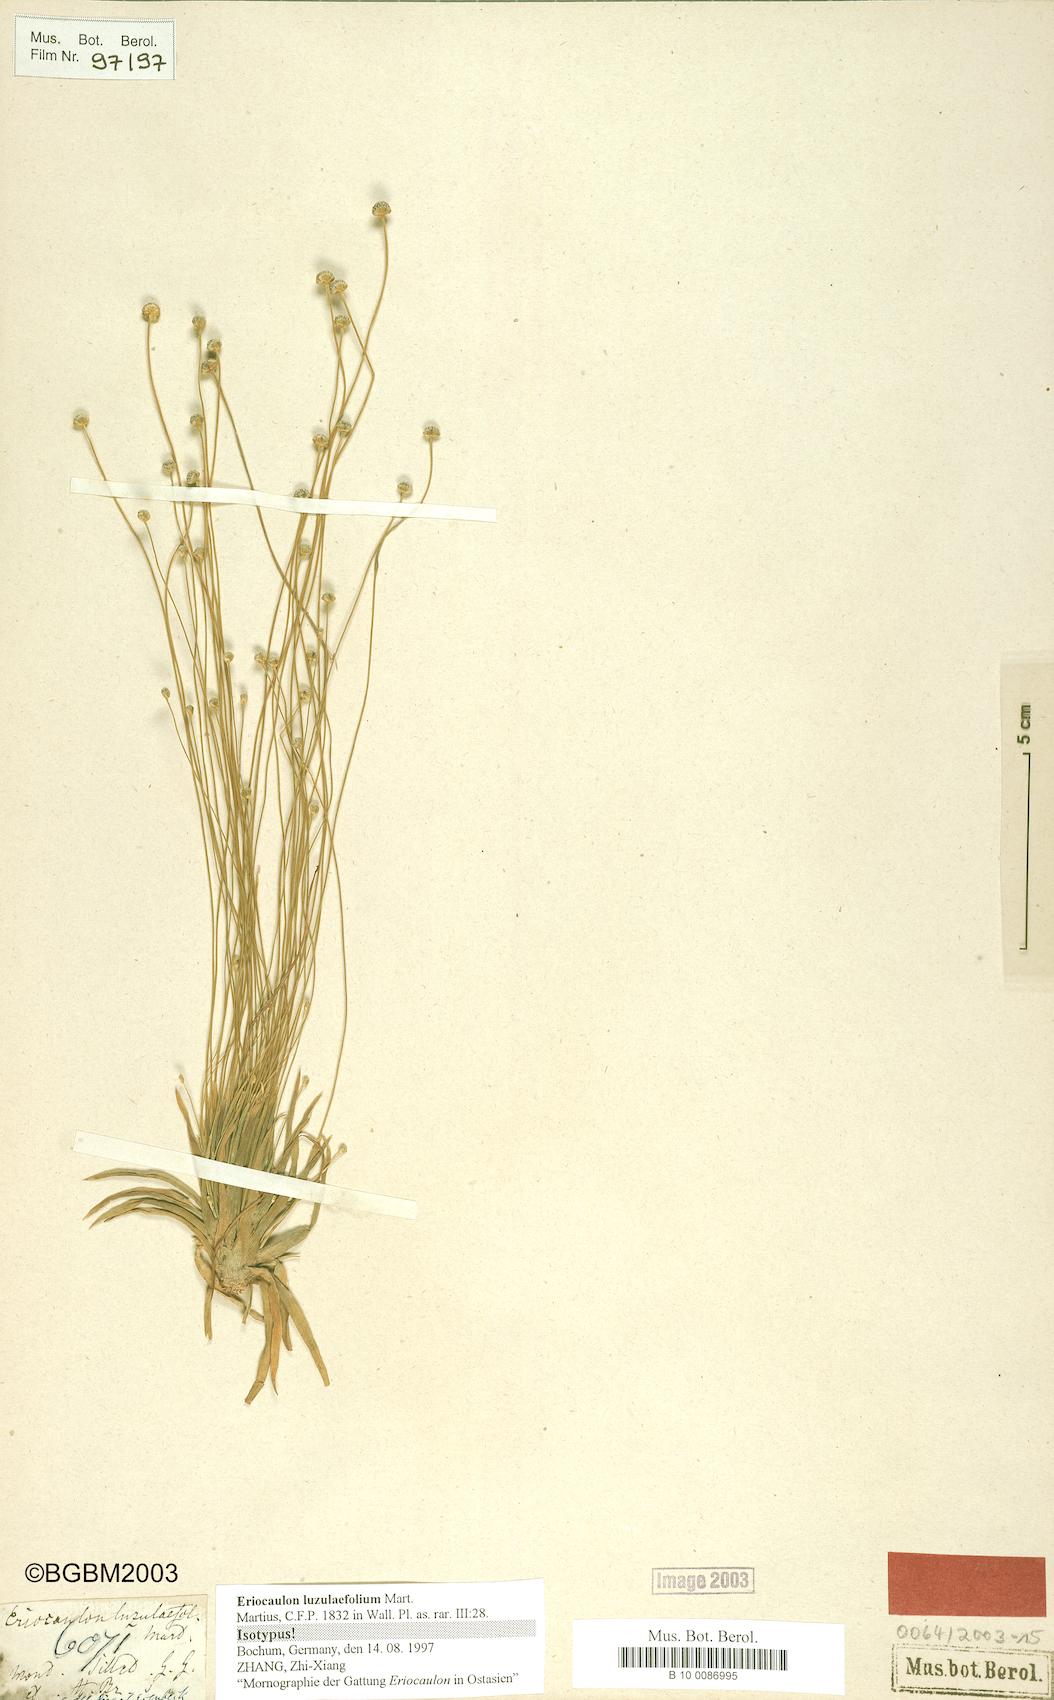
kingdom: Plantae
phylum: Tracheophyta
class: Liliopsida
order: Poales
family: Eriocaulaceae
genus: Eriocaulon
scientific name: Eriocaulon nepalense
